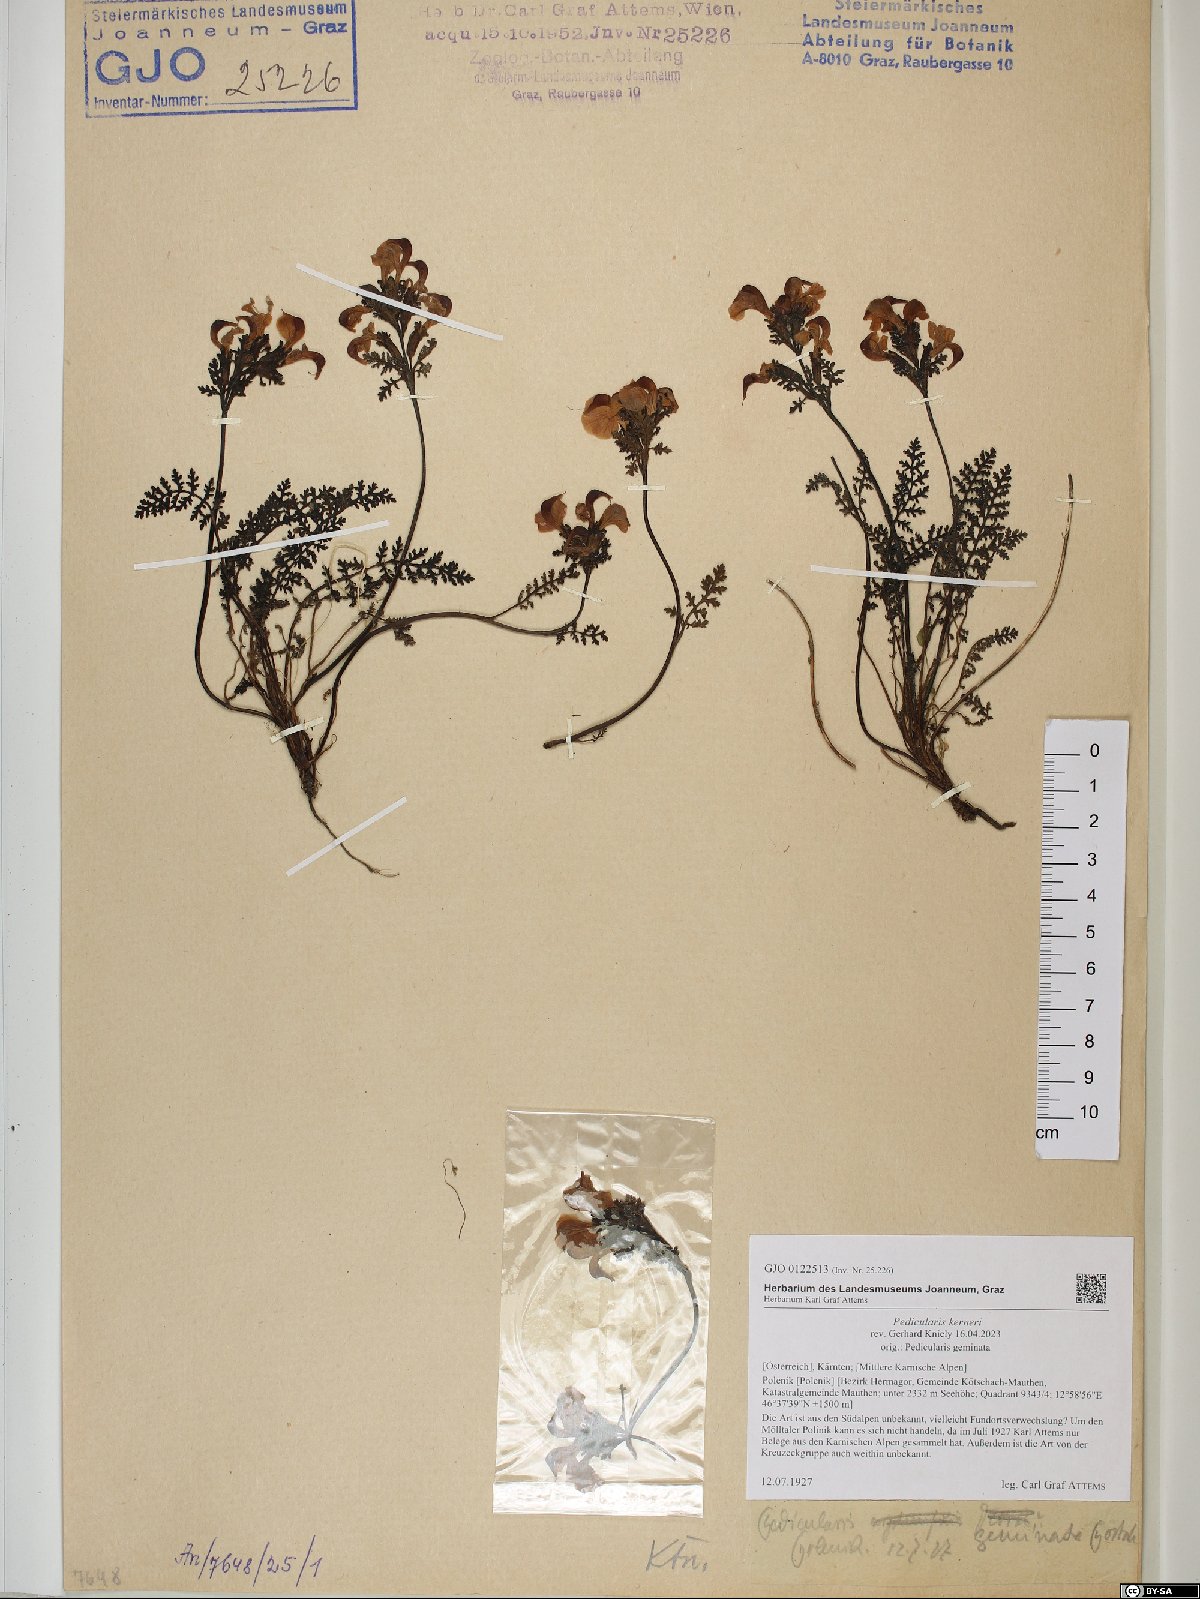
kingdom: Plantae
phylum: Tracheophyta
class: Magnoliopsida
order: Lamiales
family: Orobanchaceae
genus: Pedicularis
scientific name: Pedicularis kerneri
